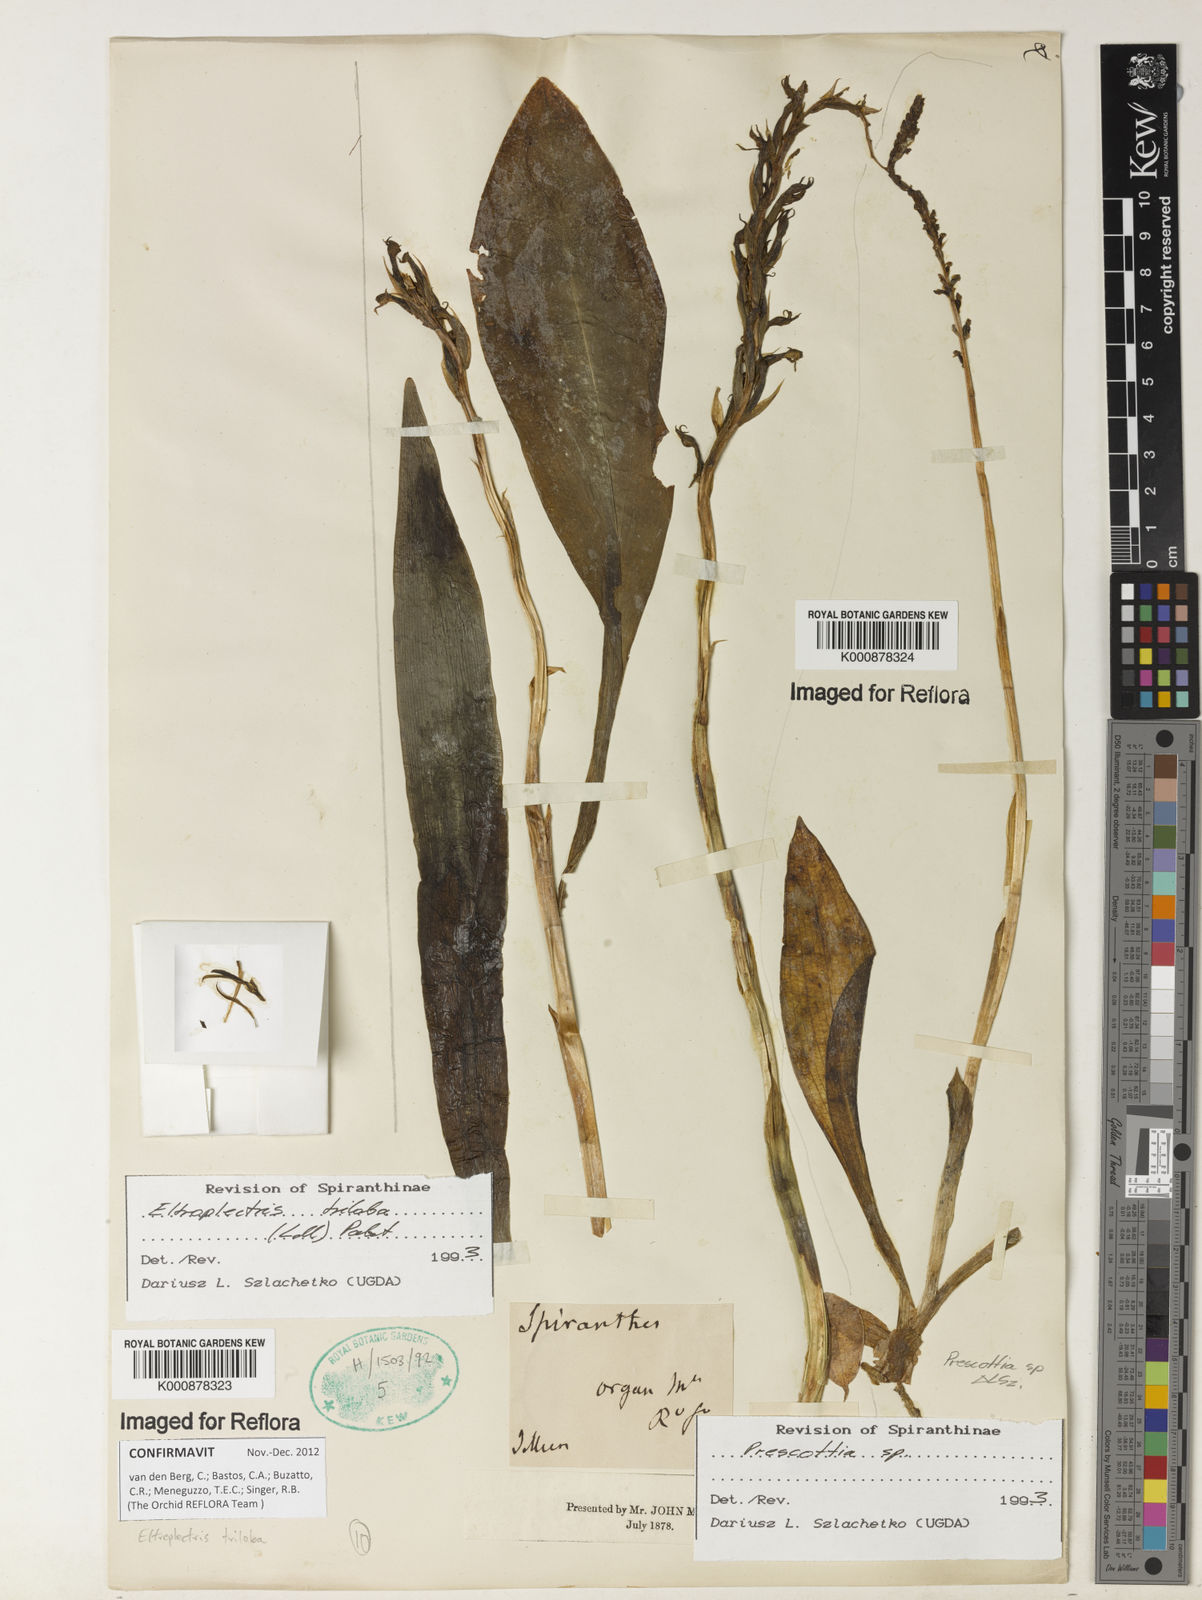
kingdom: Plantae
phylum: Tracheophyta
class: Liliopsida
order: Asparagales
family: Orchidaceae
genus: Eltroplectris
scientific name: Eltroplectris triloba
